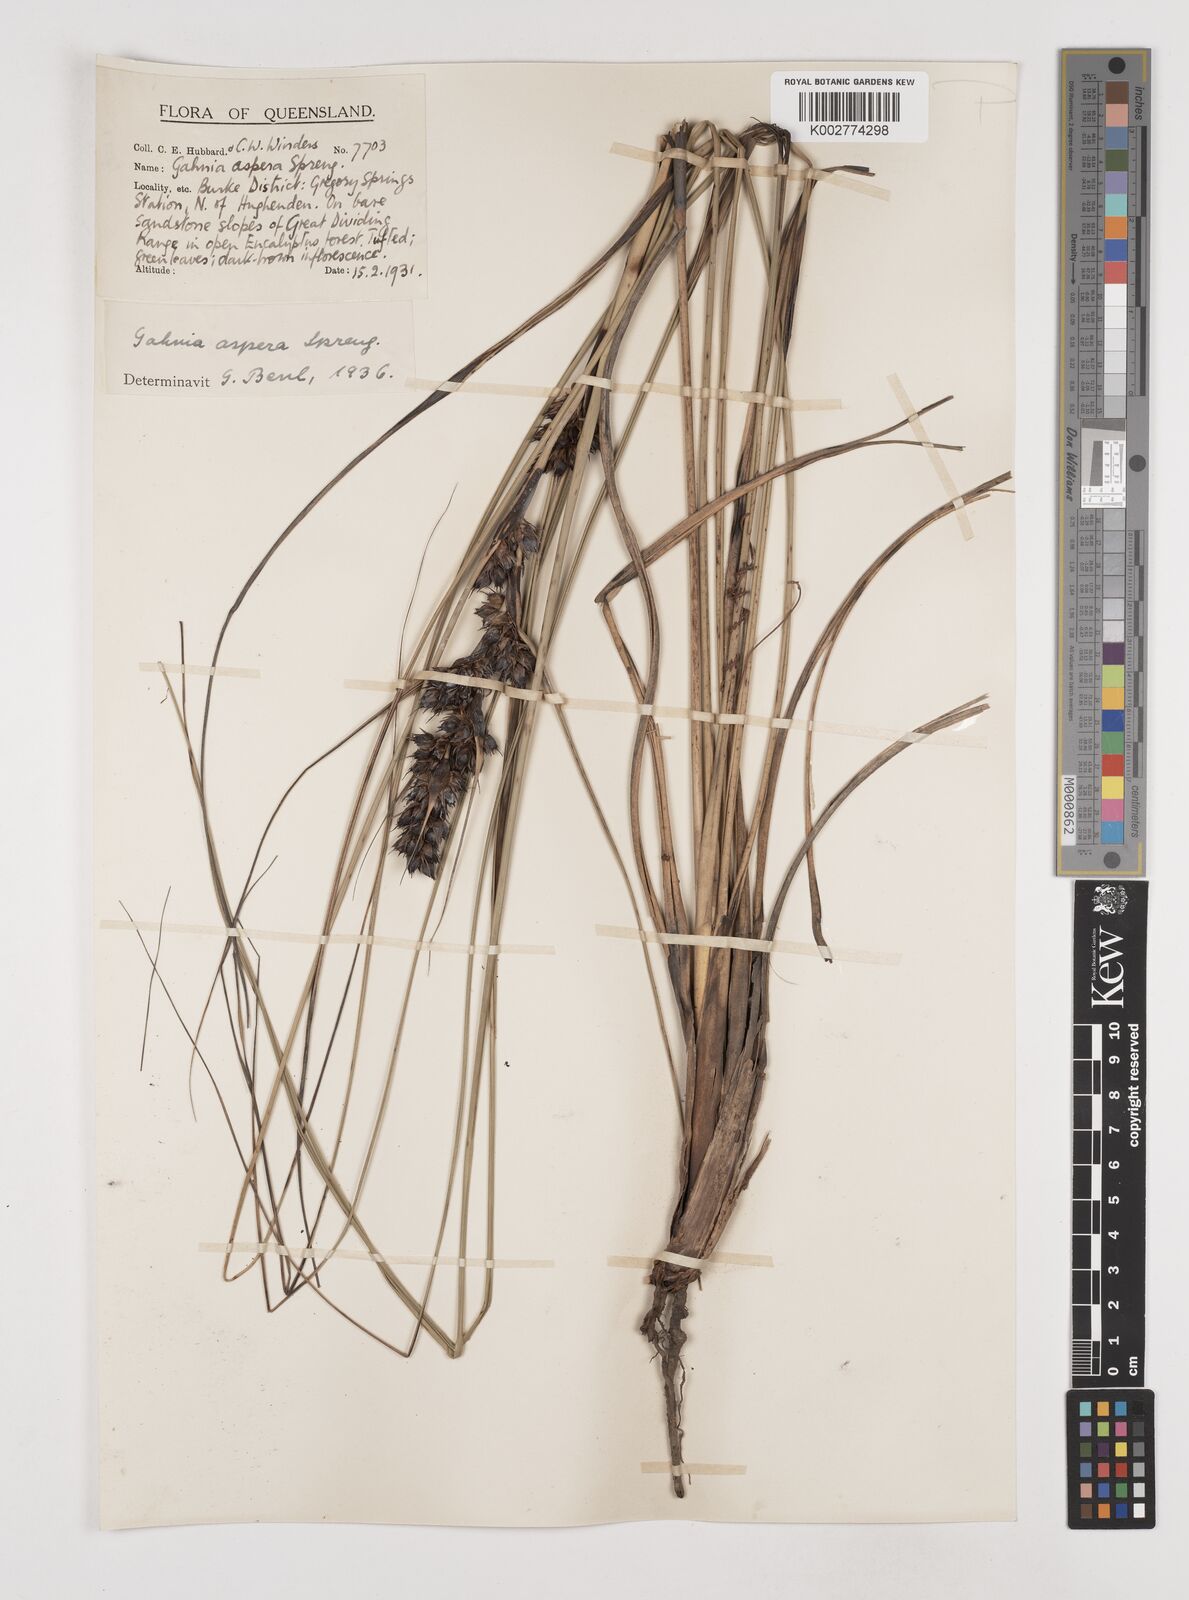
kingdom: Plantae
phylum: Tracheophyta
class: Liliopsida
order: Poales
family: Cyperaceae
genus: Gahnia
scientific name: Gahnia aspera
